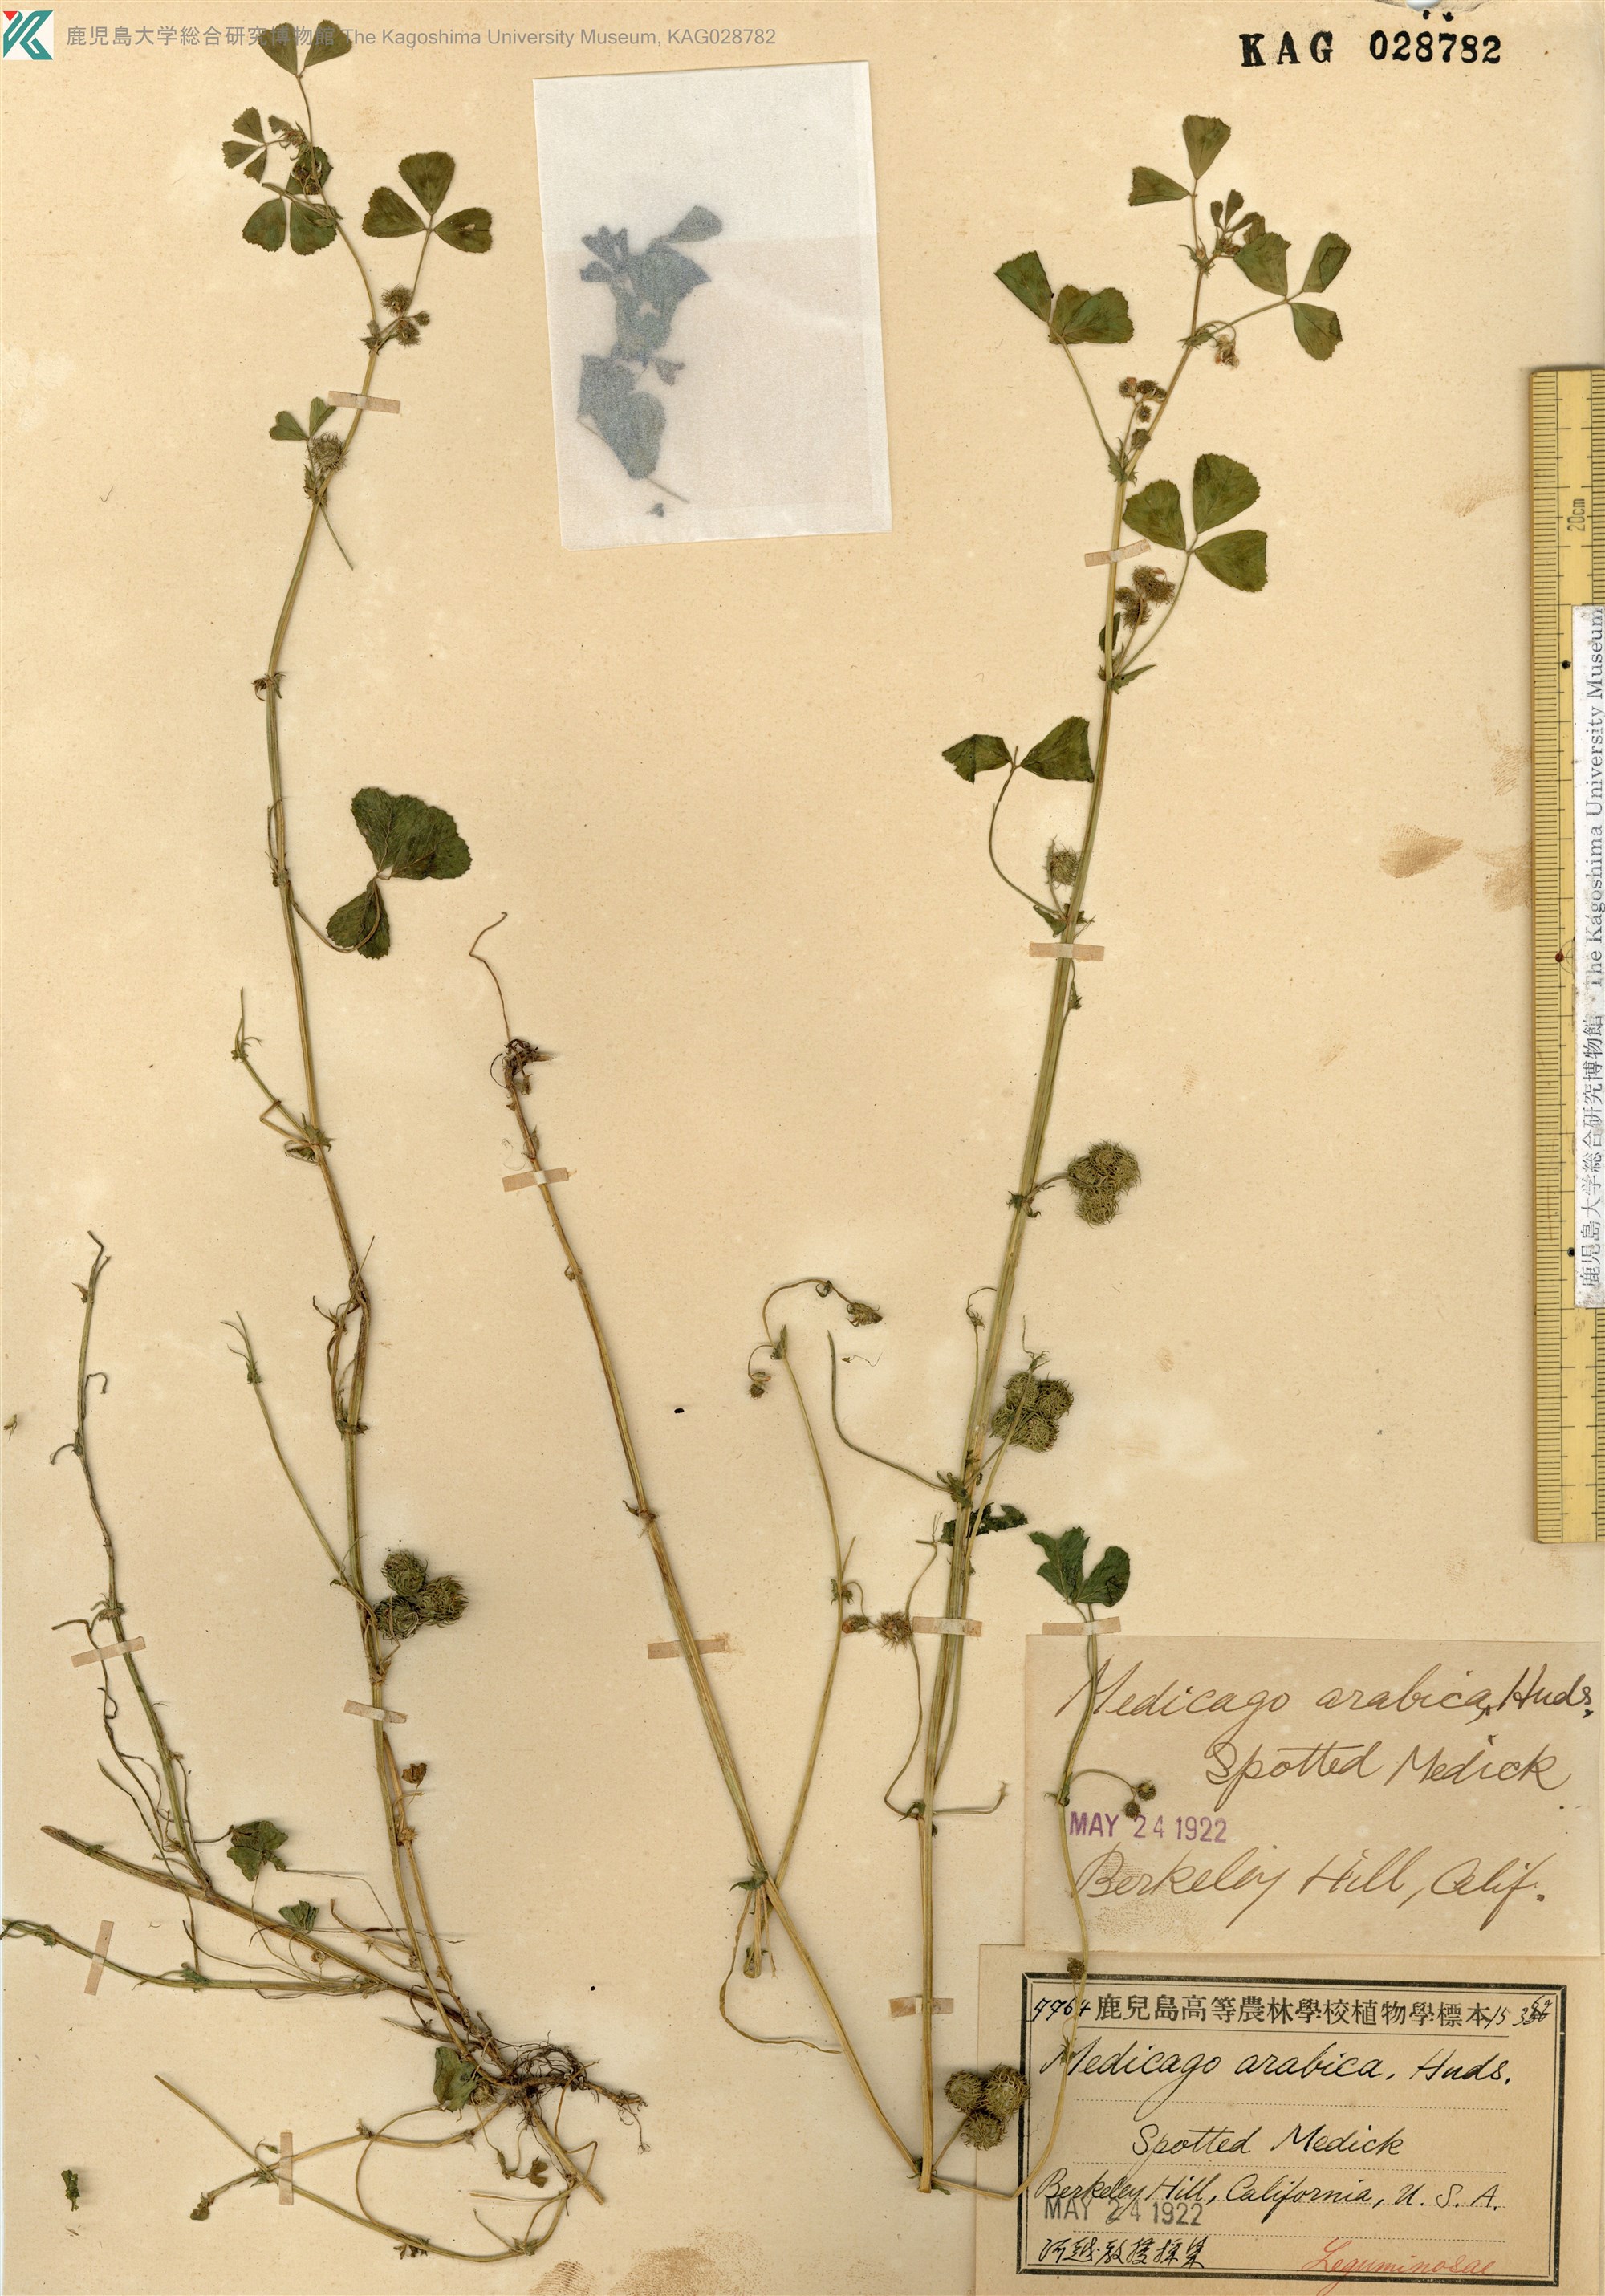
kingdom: Plantae
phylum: Tracheophyta
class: Magnoliopsida
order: Fabales
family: Fabaceae
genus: Medicago
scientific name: Medicago arabica
